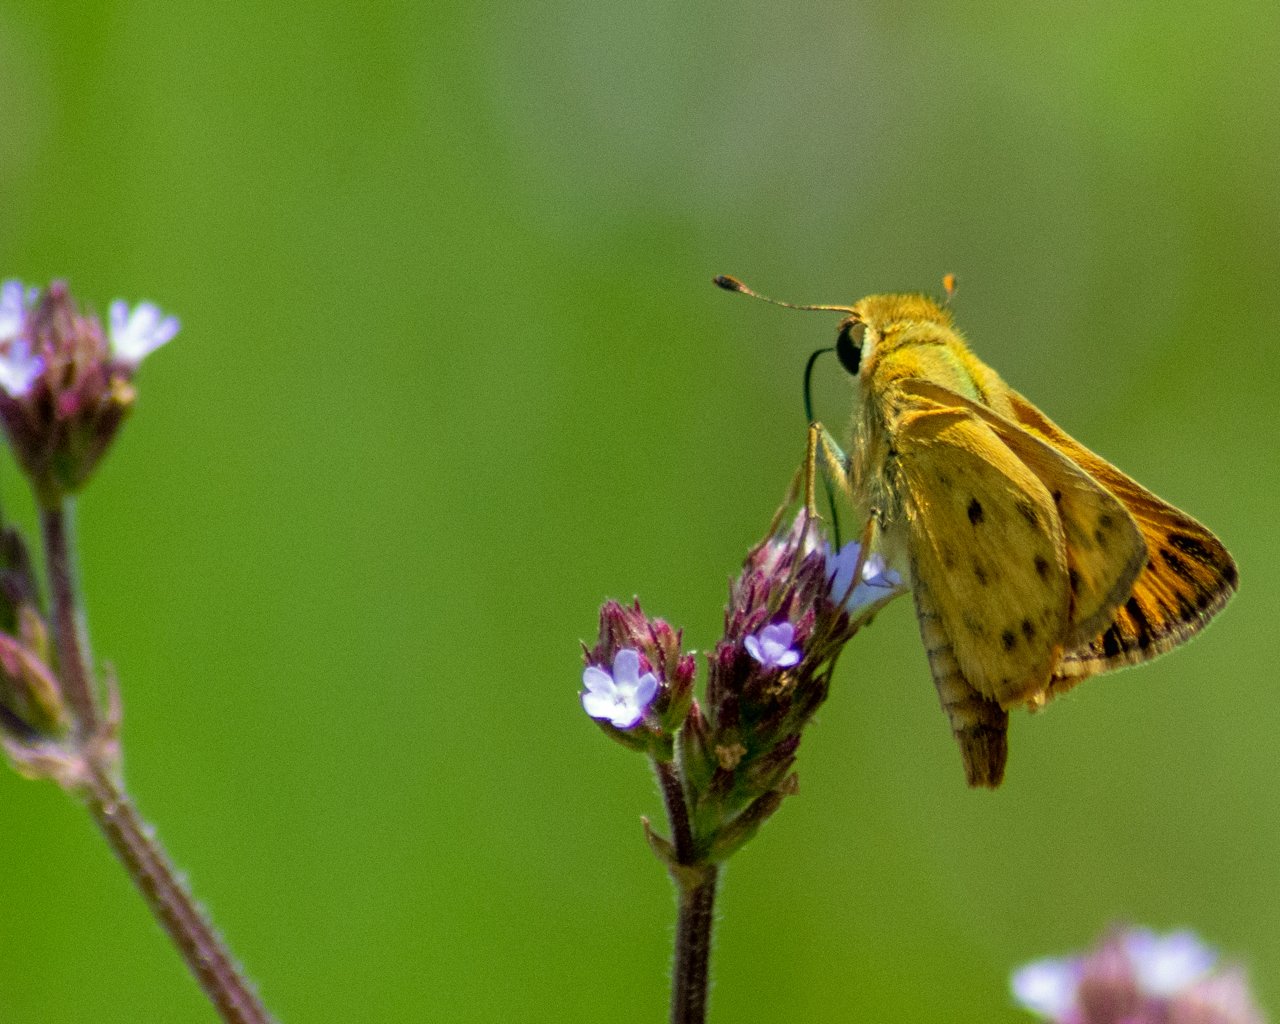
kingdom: Animalia
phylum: Arthropoda
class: Insecta
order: Lepidoptera
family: Hesperiidae
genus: Hylephila
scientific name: Hylephila phyleus
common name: Fiery Skipper
